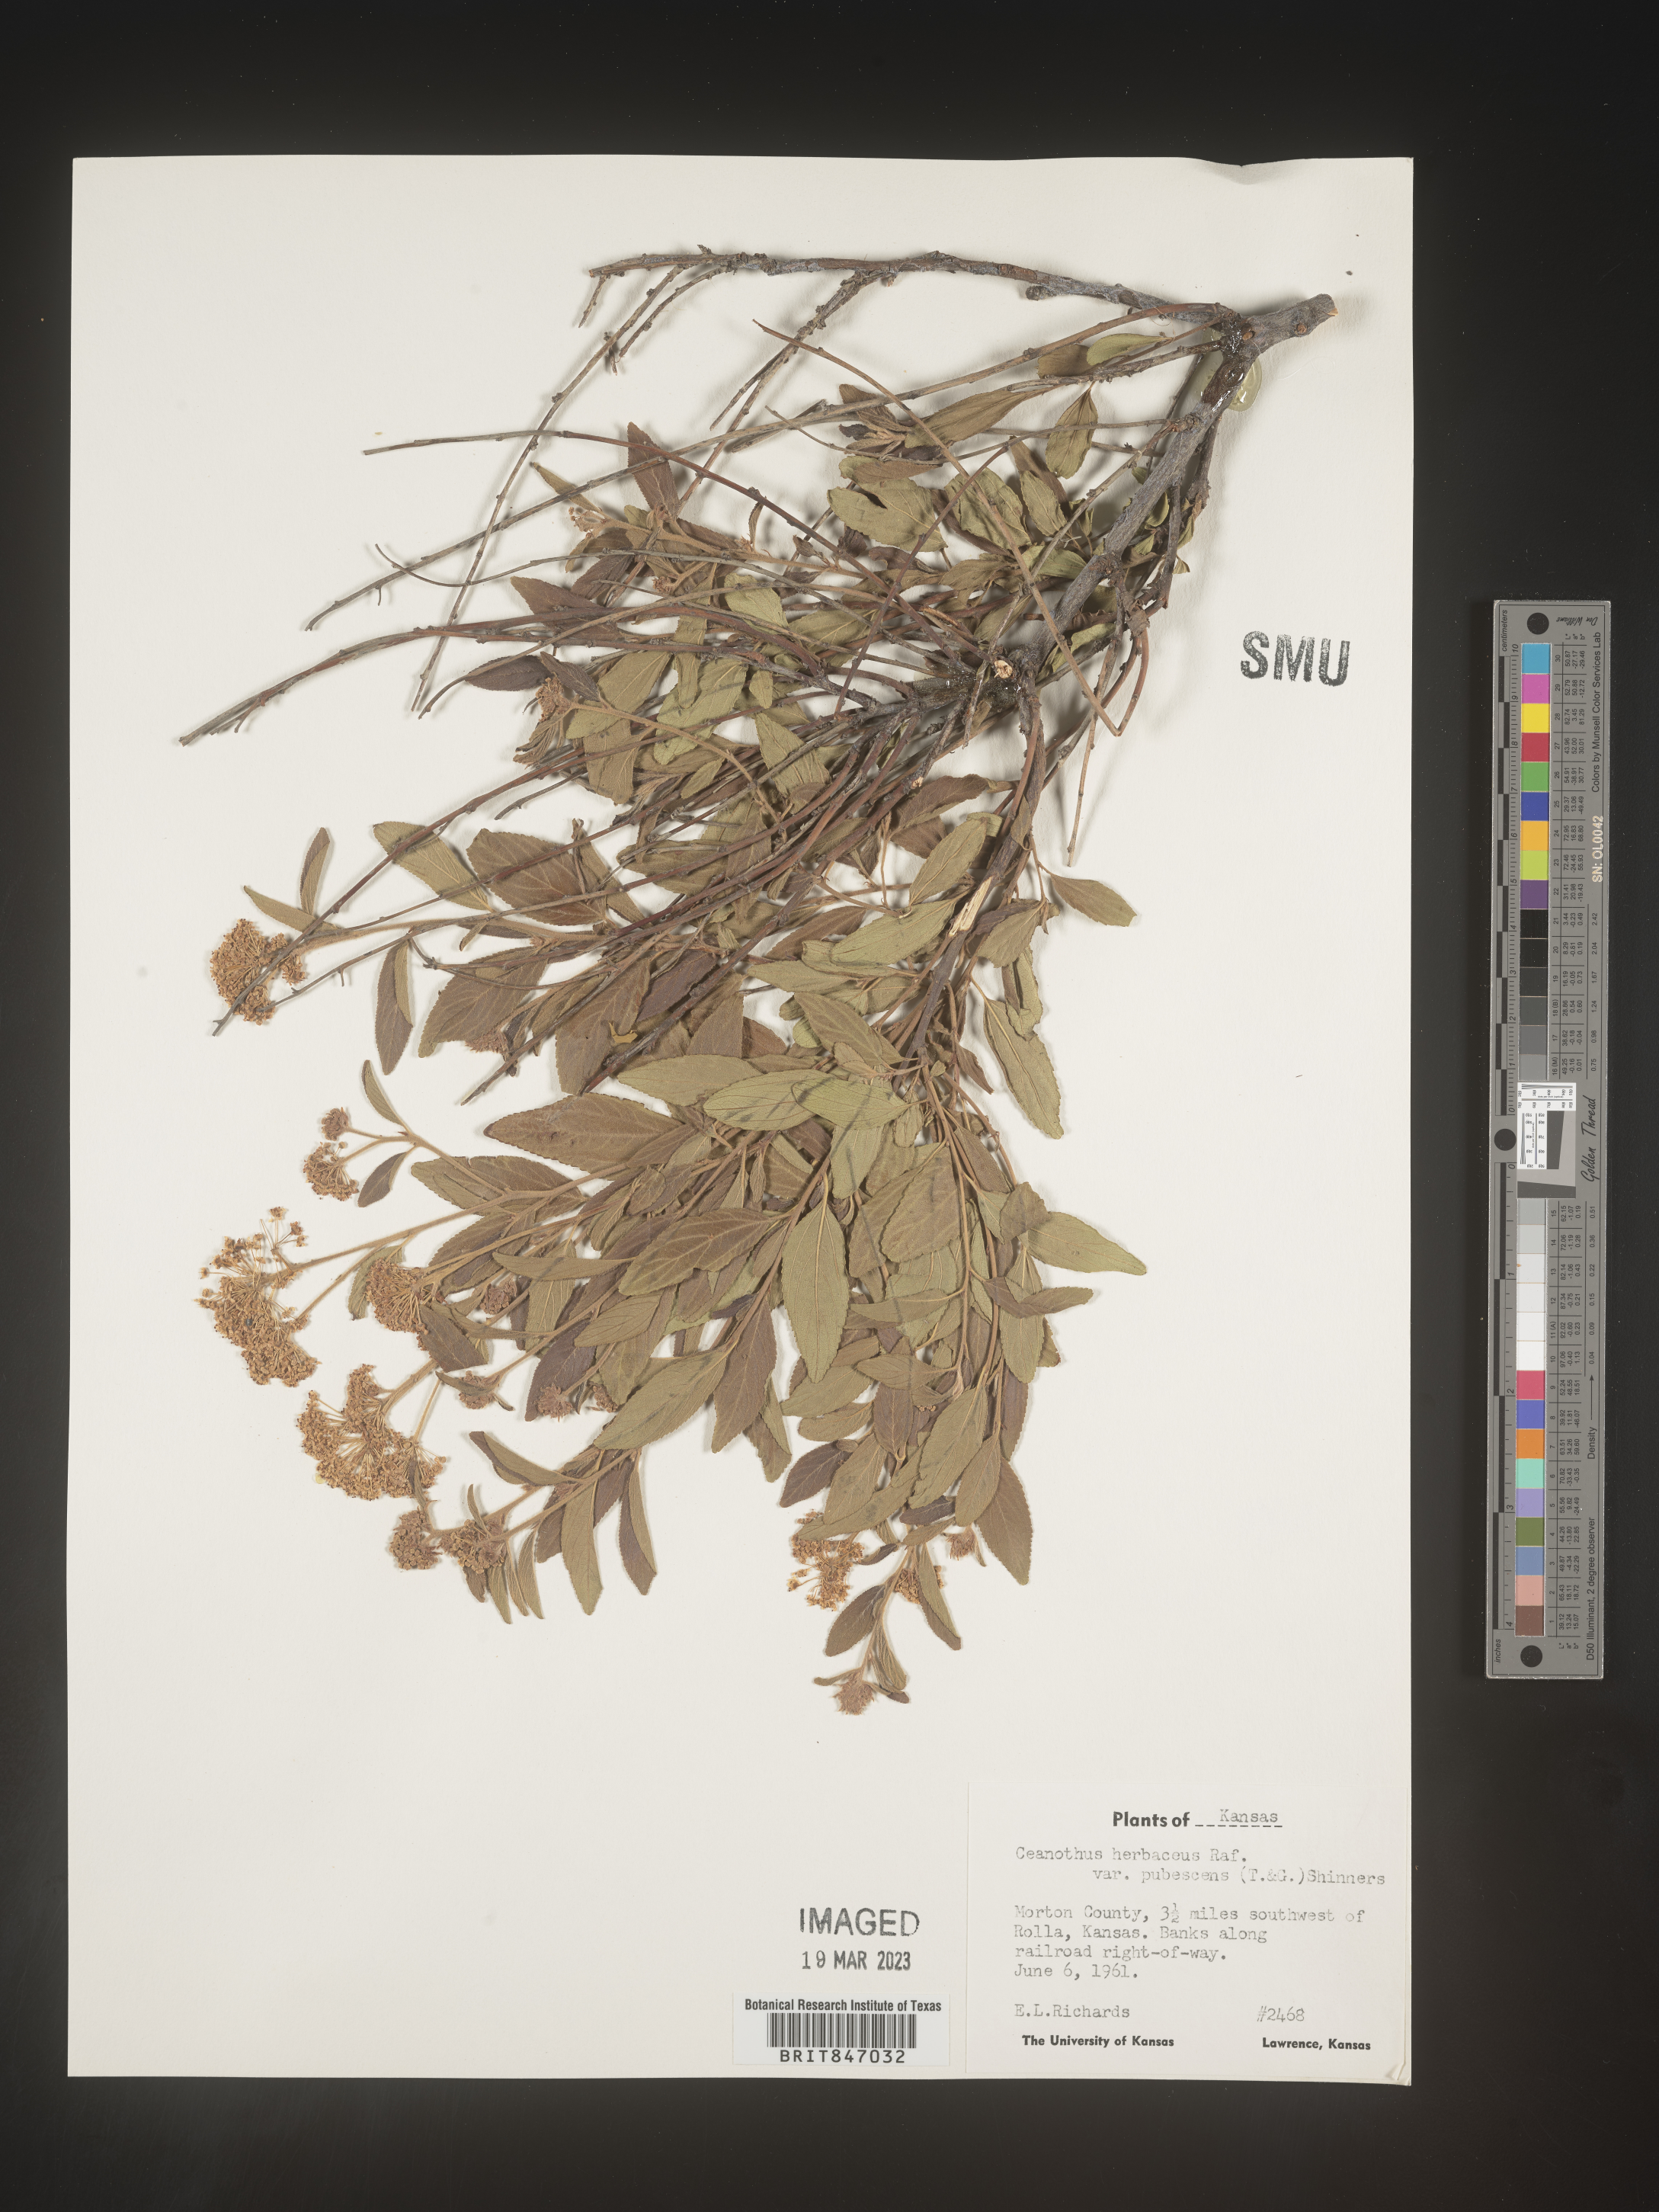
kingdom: Plantae
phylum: Tracheophyta
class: Magnoliopsida
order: Rosales
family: Rhamnaceae
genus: Ceanothus
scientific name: Ceanothus herbaceus
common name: Inland ceanothus
